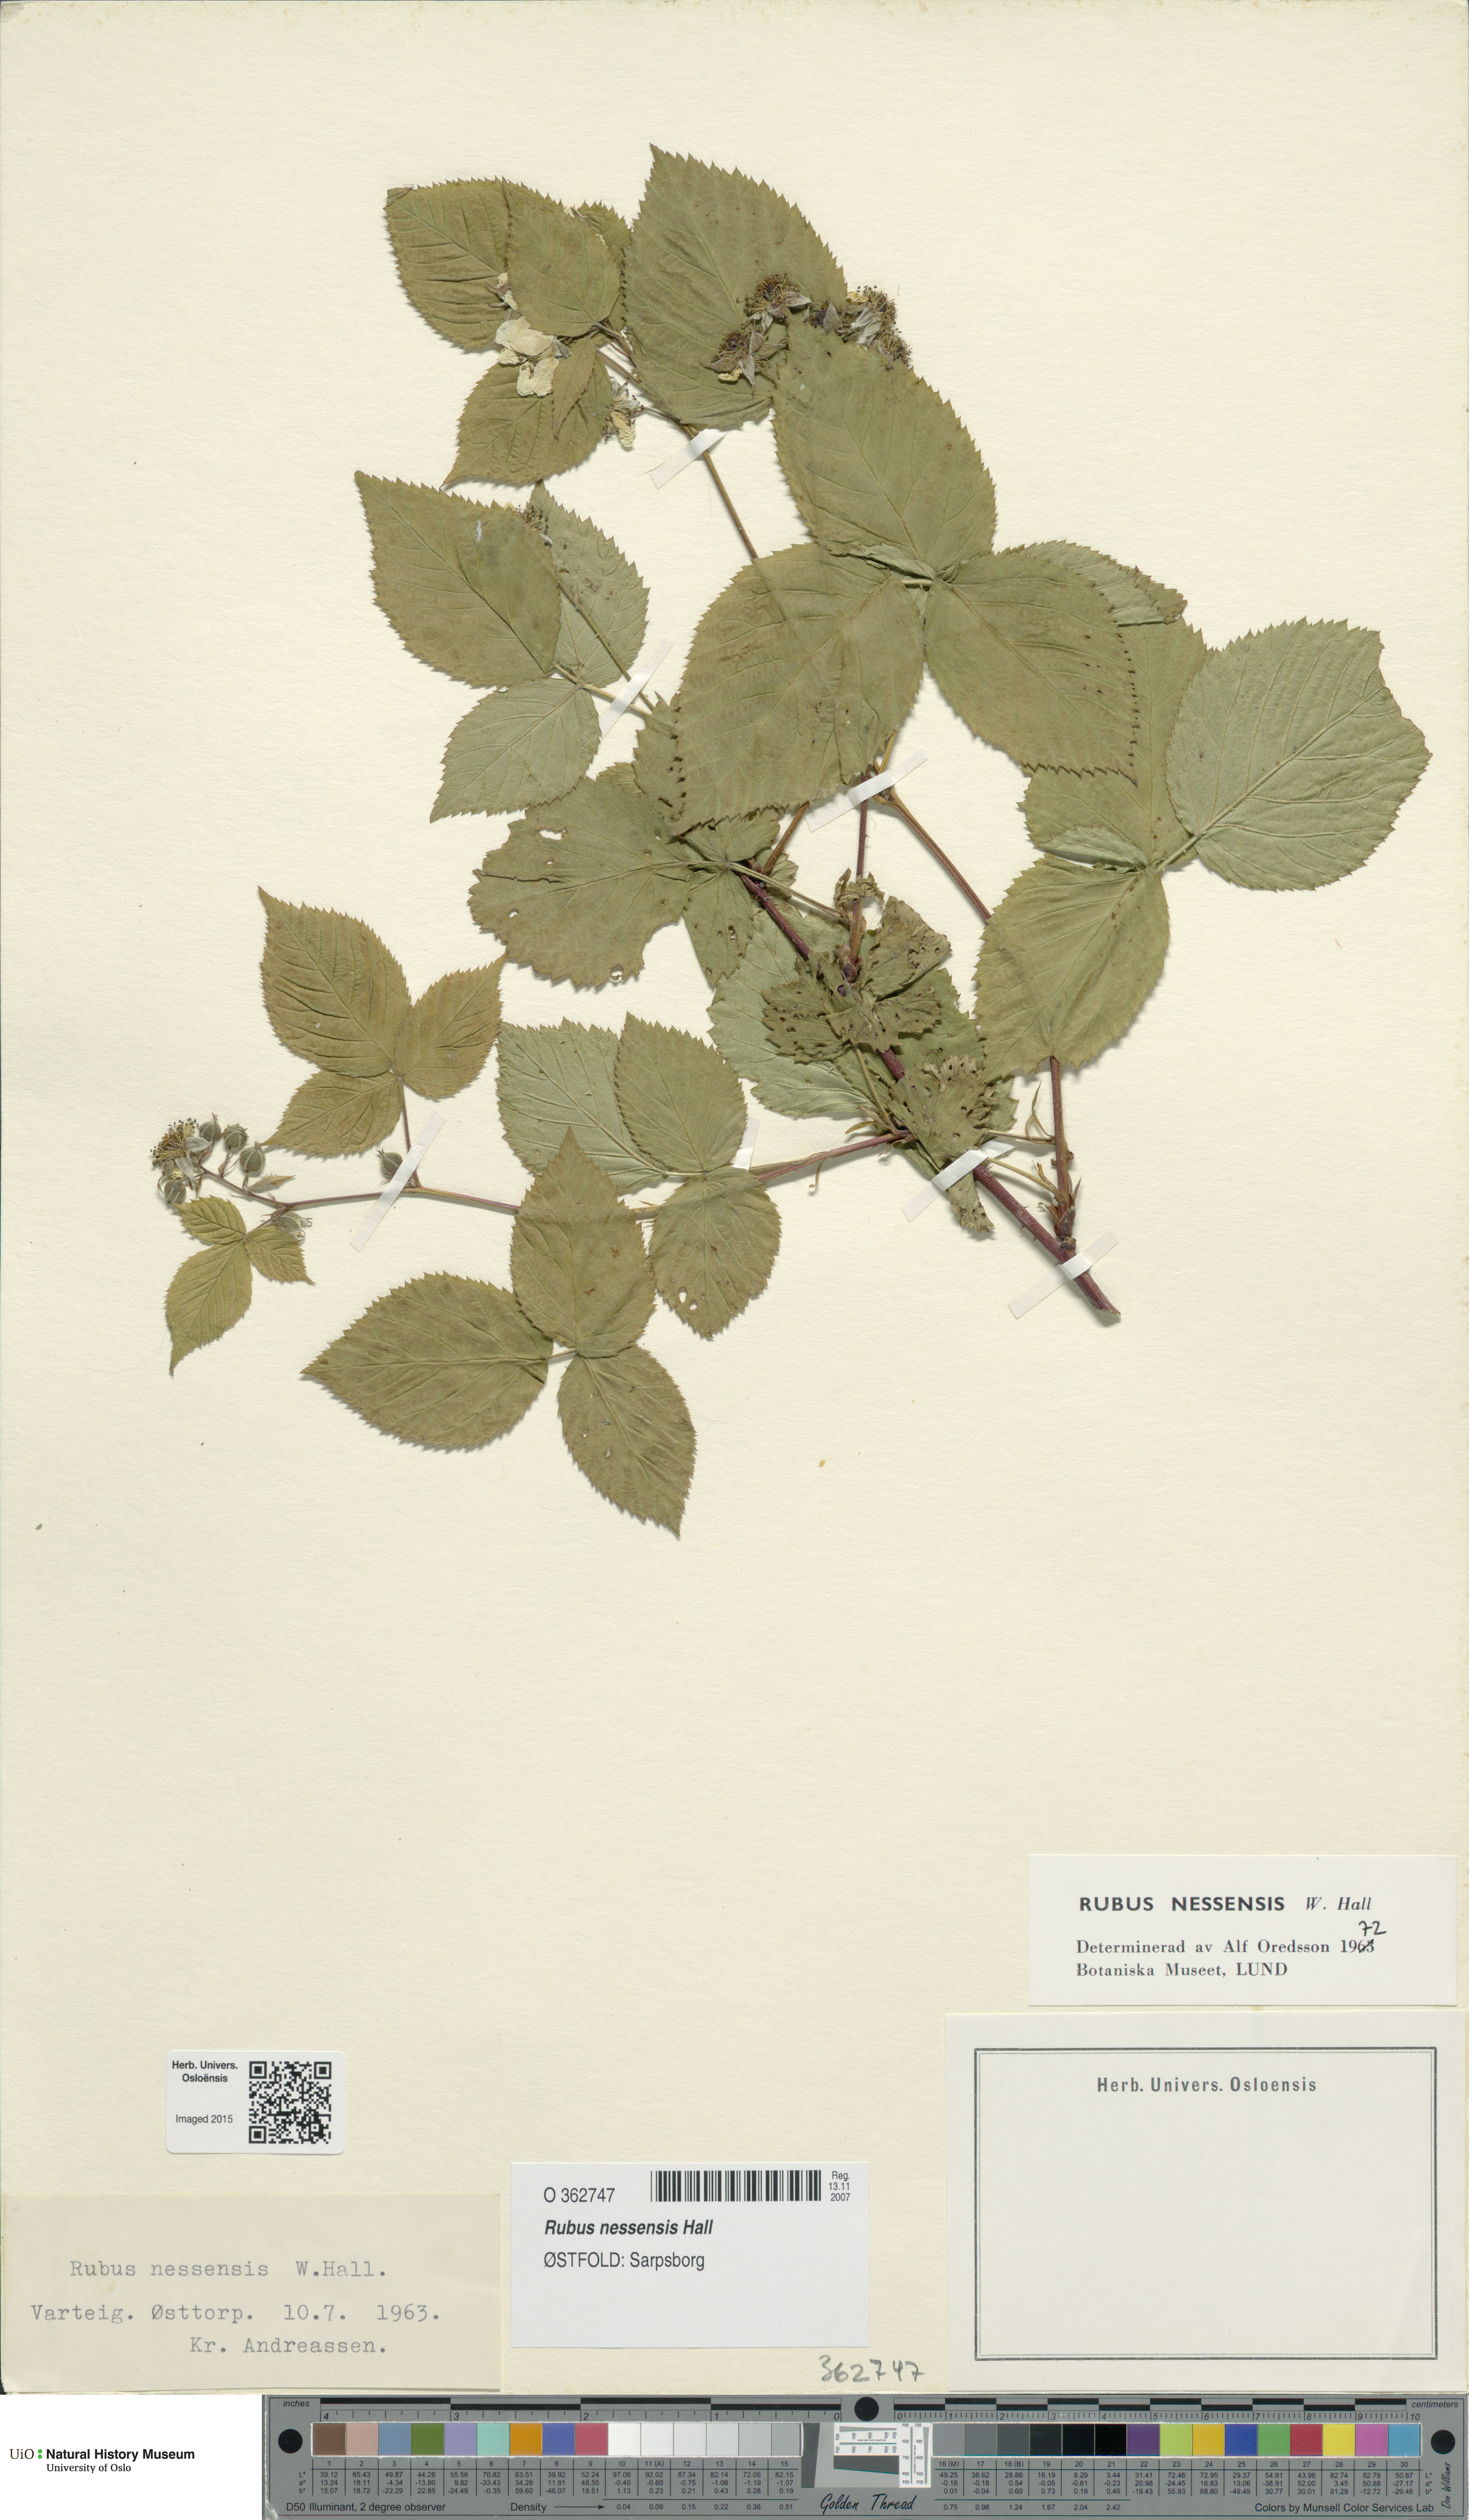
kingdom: Plantae
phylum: Tracheophyta
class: Magnoliopsida
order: Rosales
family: Rosaceae
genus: Rubus
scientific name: Rubus polonicus
